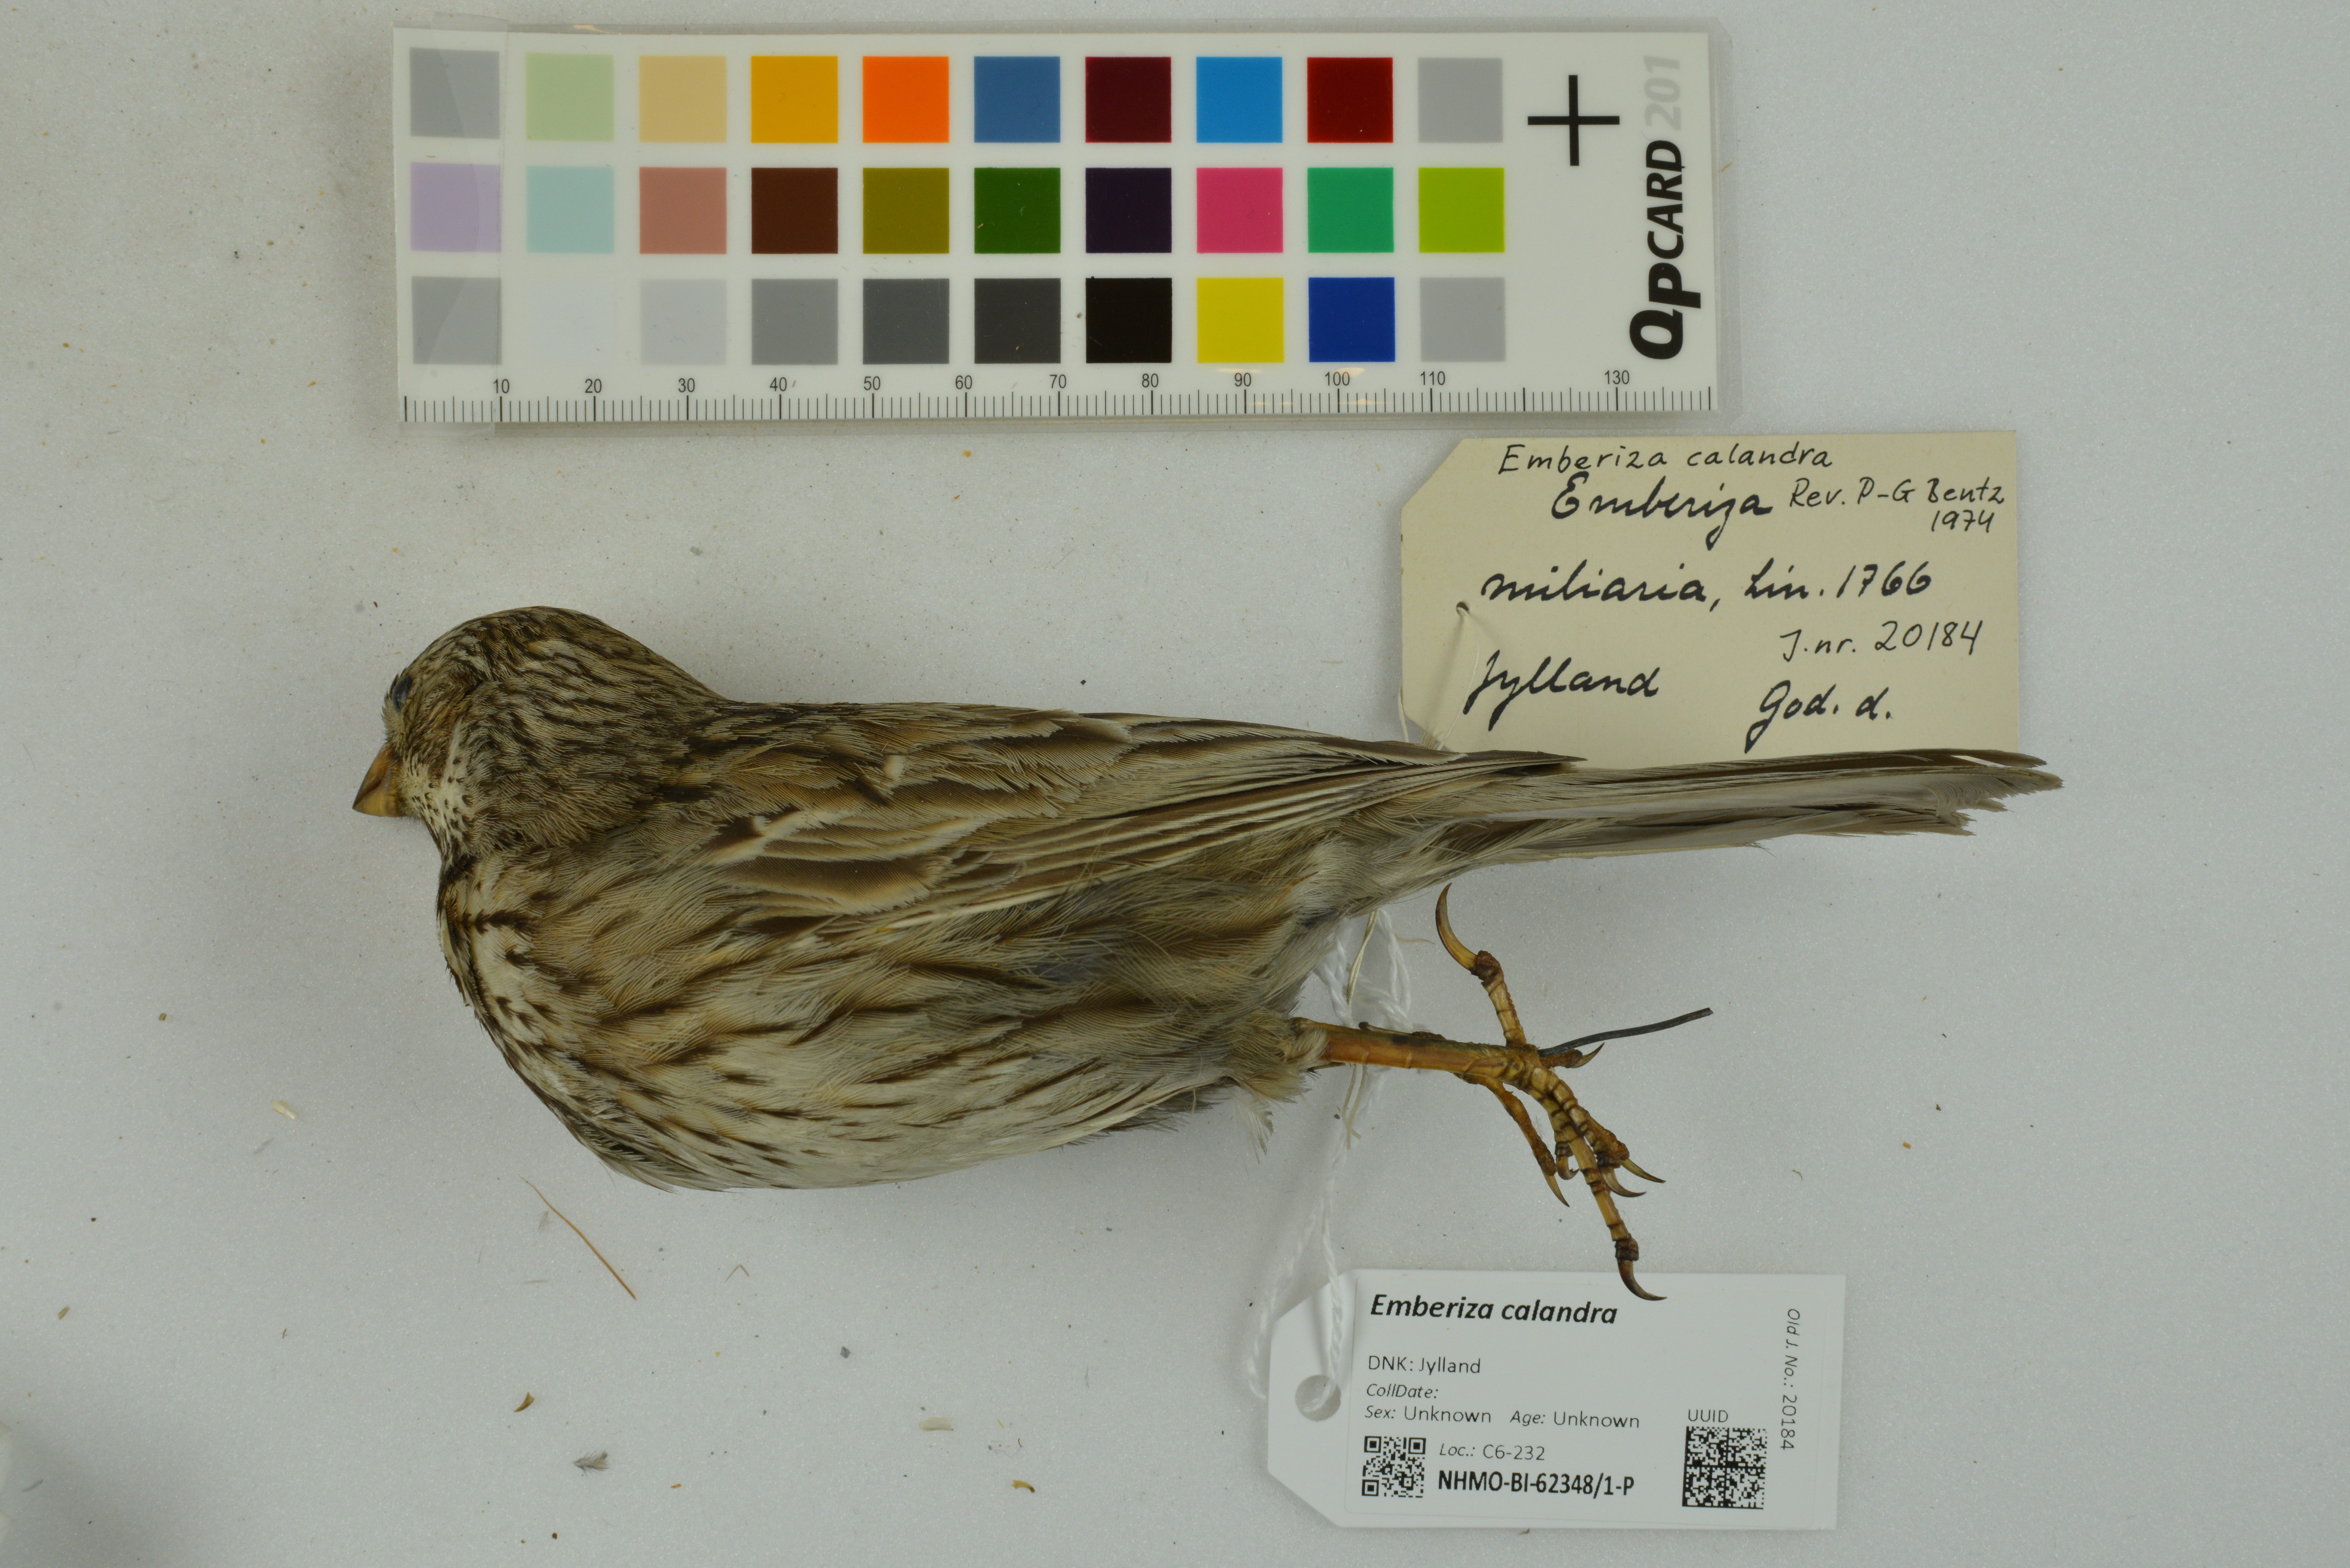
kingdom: Animalia
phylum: Chordata
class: Aves
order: Passeriformes
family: Emberizidae
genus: Emberiza
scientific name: Emberiza calandra
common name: Corn bunting
